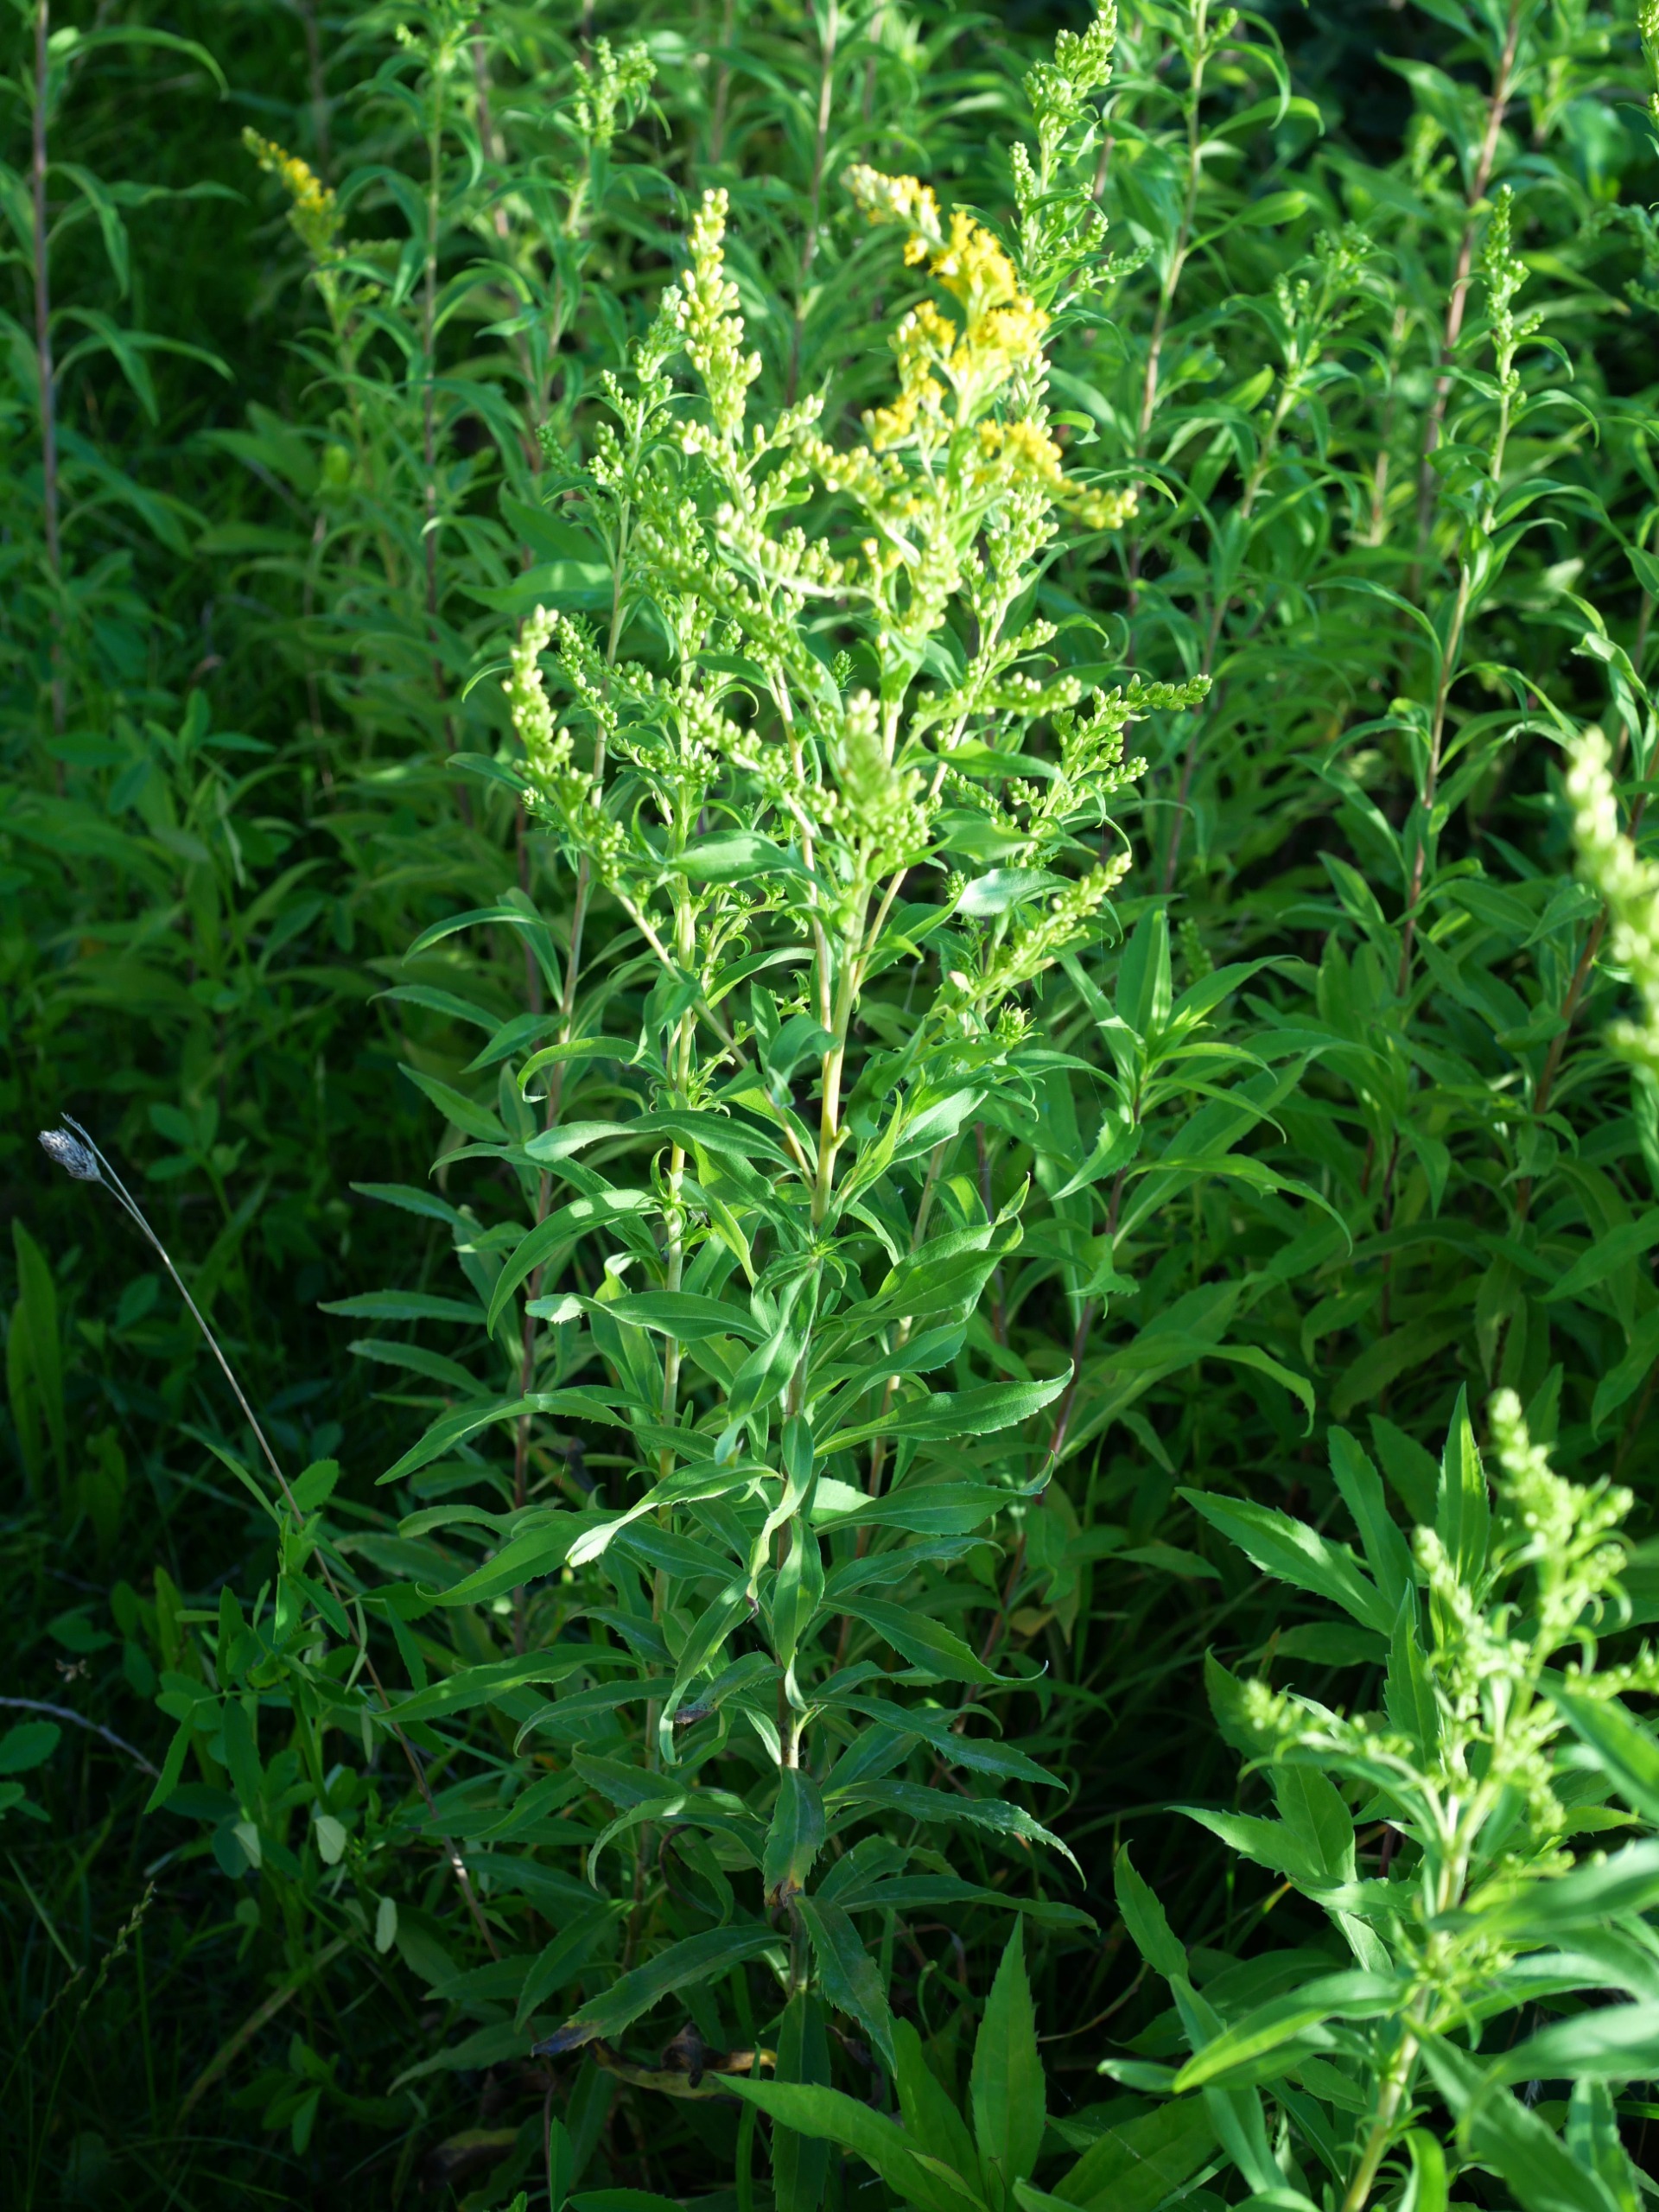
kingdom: Plantae
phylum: Tracheophyta
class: Magnoliopsida
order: Asterales
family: Asteraceae
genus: Solidago
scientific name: Solidago gigantea
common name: Sildig gyldenris
